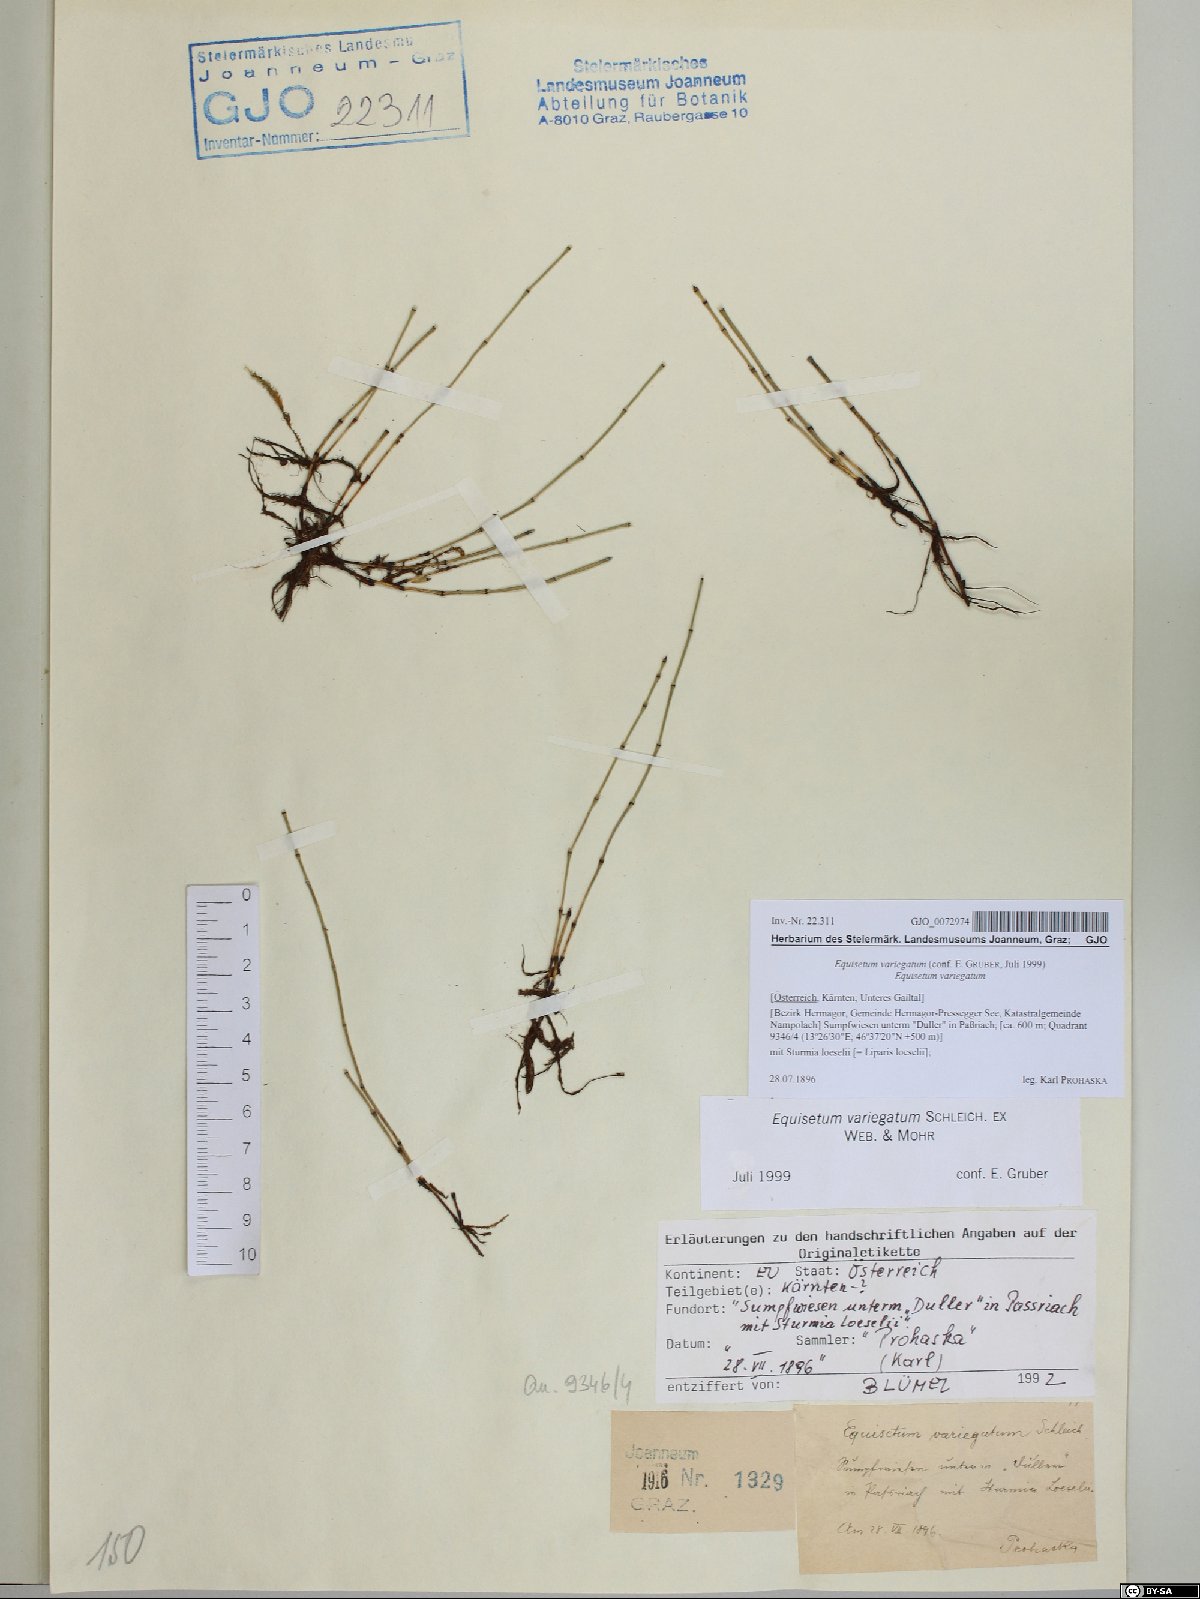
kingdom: Plantae
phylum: Tracheophyta
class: Polypodiopsida
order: Equisetales
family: Equisetaceae
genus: Equisetum
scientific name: Equisetum variegatum
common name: Variegated horsetail
